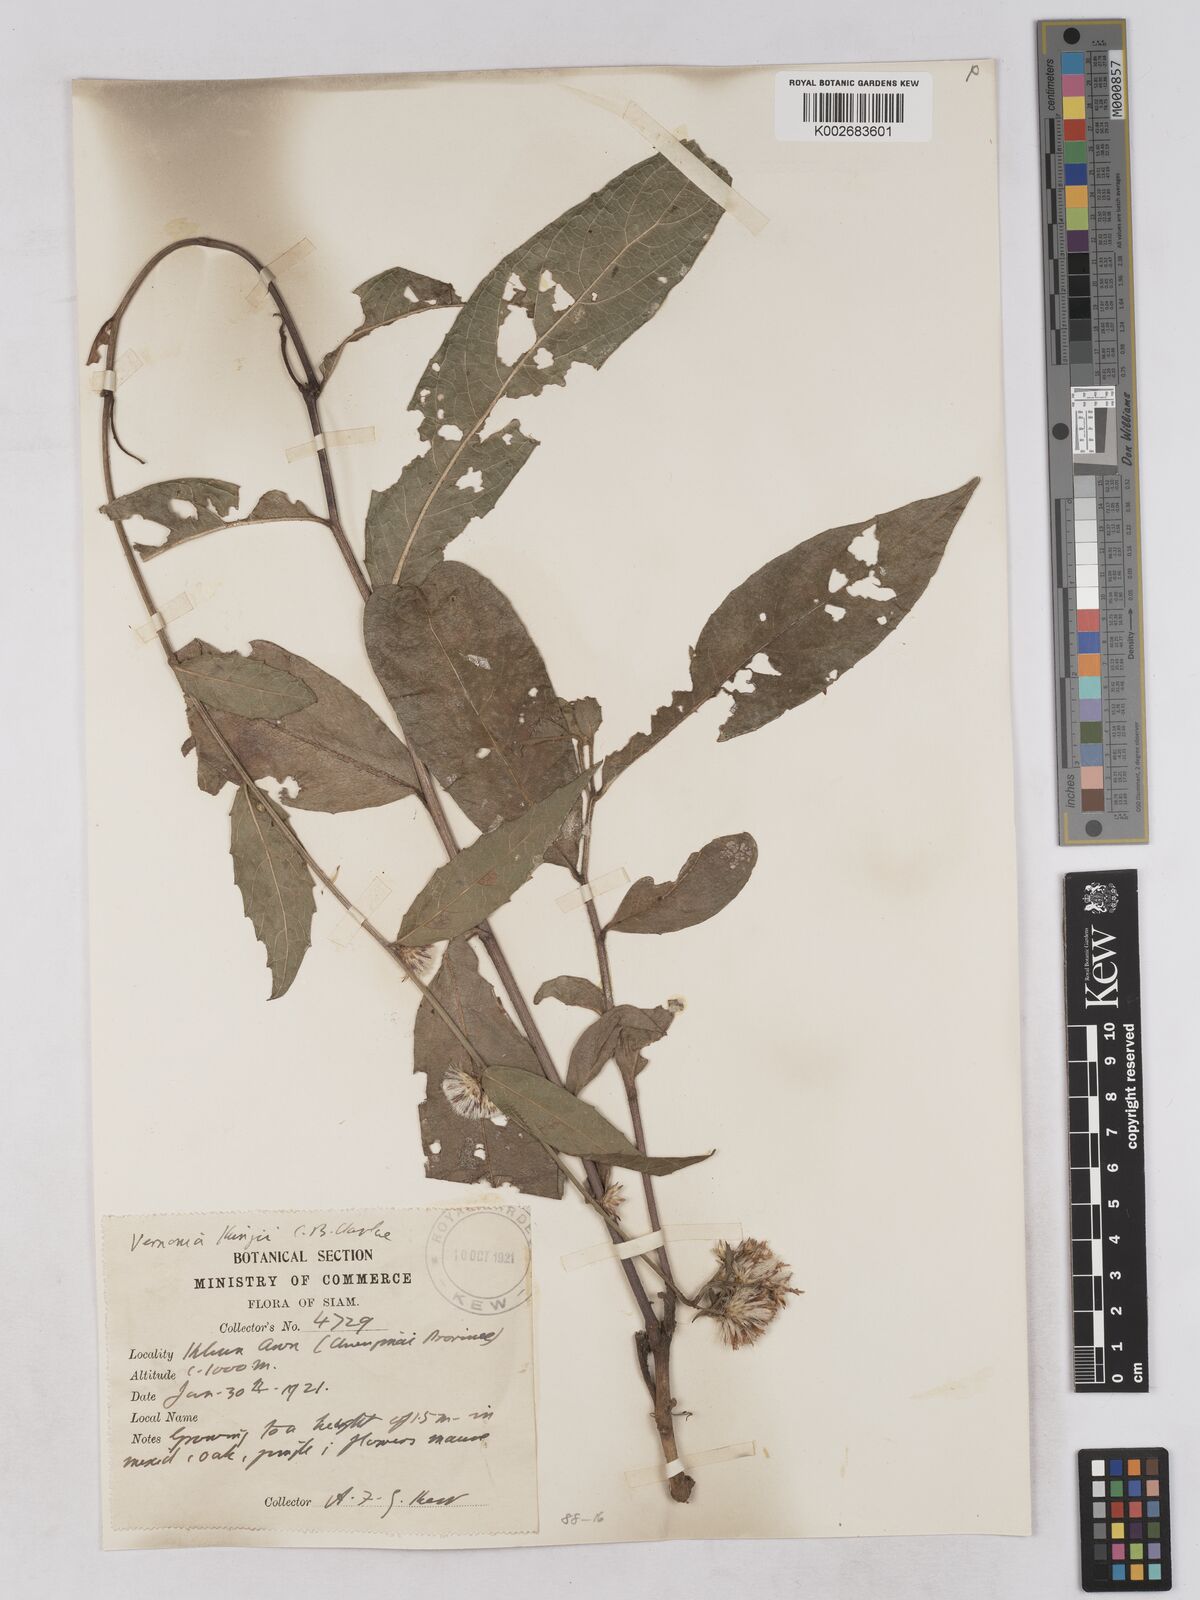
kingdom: Plantae
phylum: Tracheophyta
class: Magnoliopsida
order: Asterales
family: Asteraceae
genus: Acilepis
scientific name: Acilepis kingii
